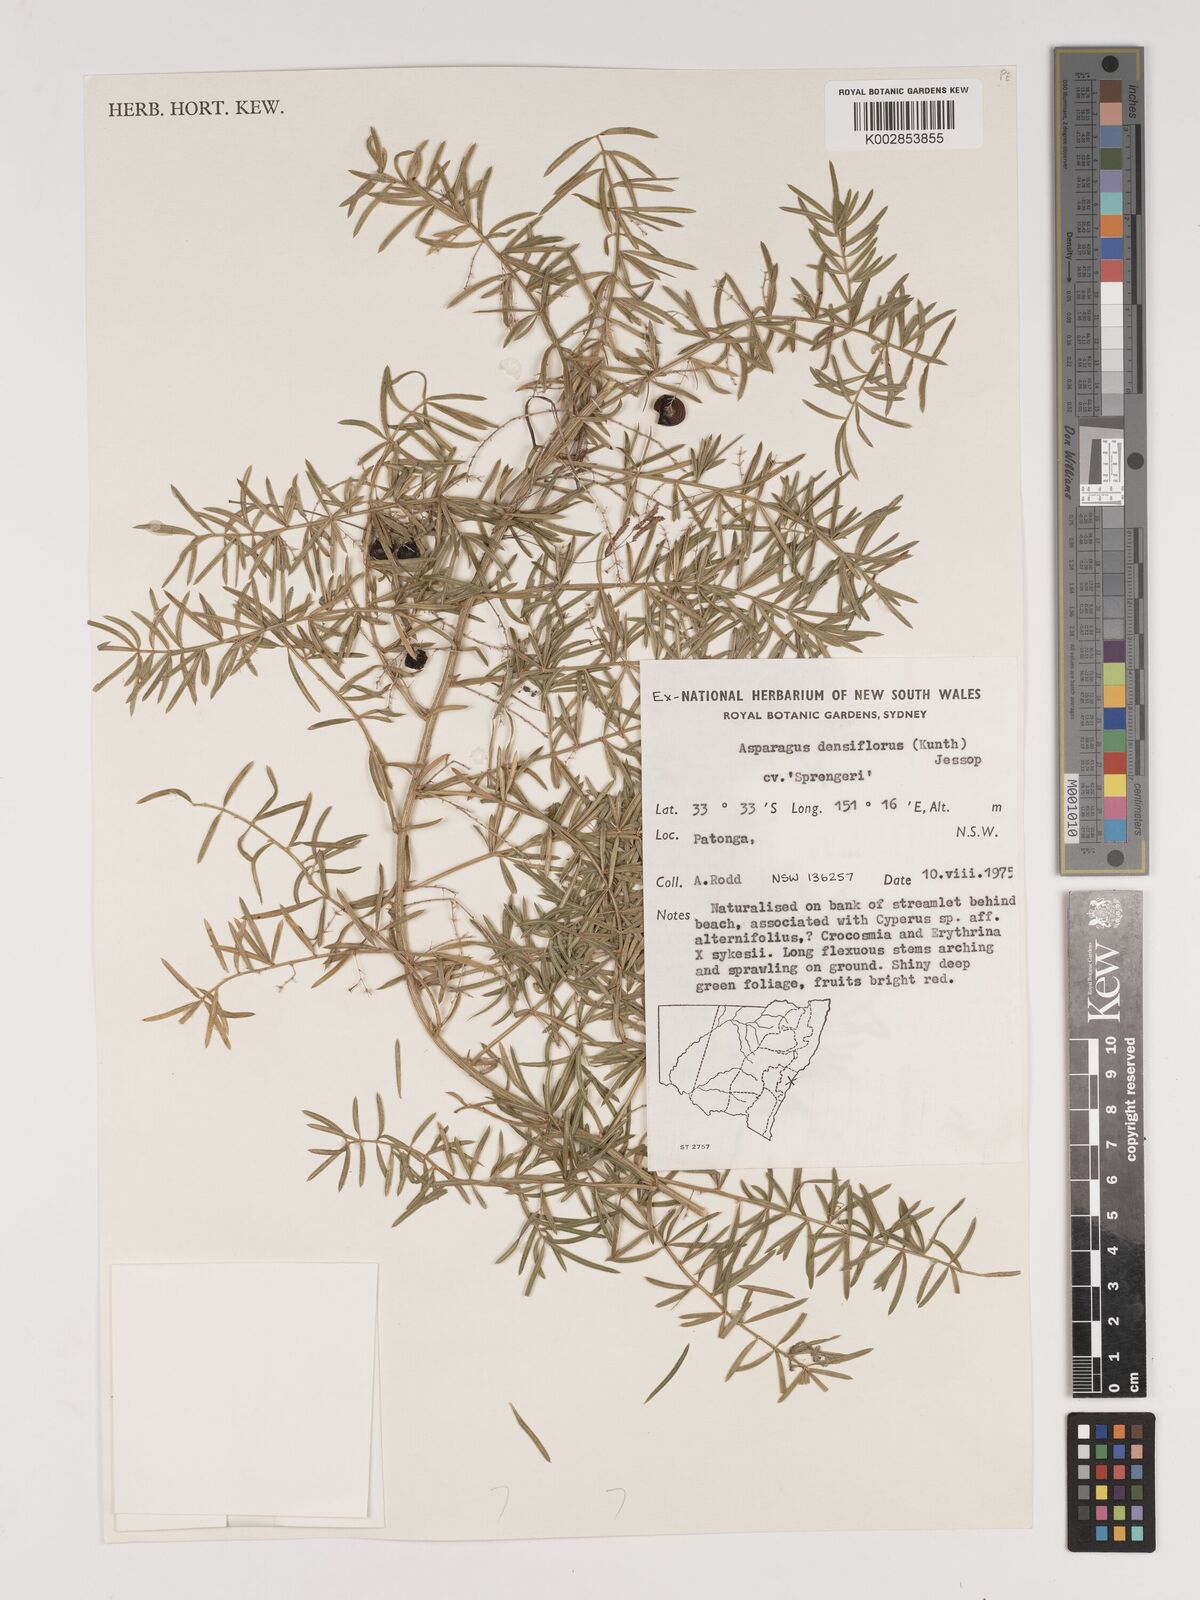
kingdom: Plantae
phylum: Tracheophyta
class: Liliopsida
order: Asparagales
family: Asparagaceae
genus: Asparagus
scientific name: Asparagus densiflorus
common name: Asparagus fern
